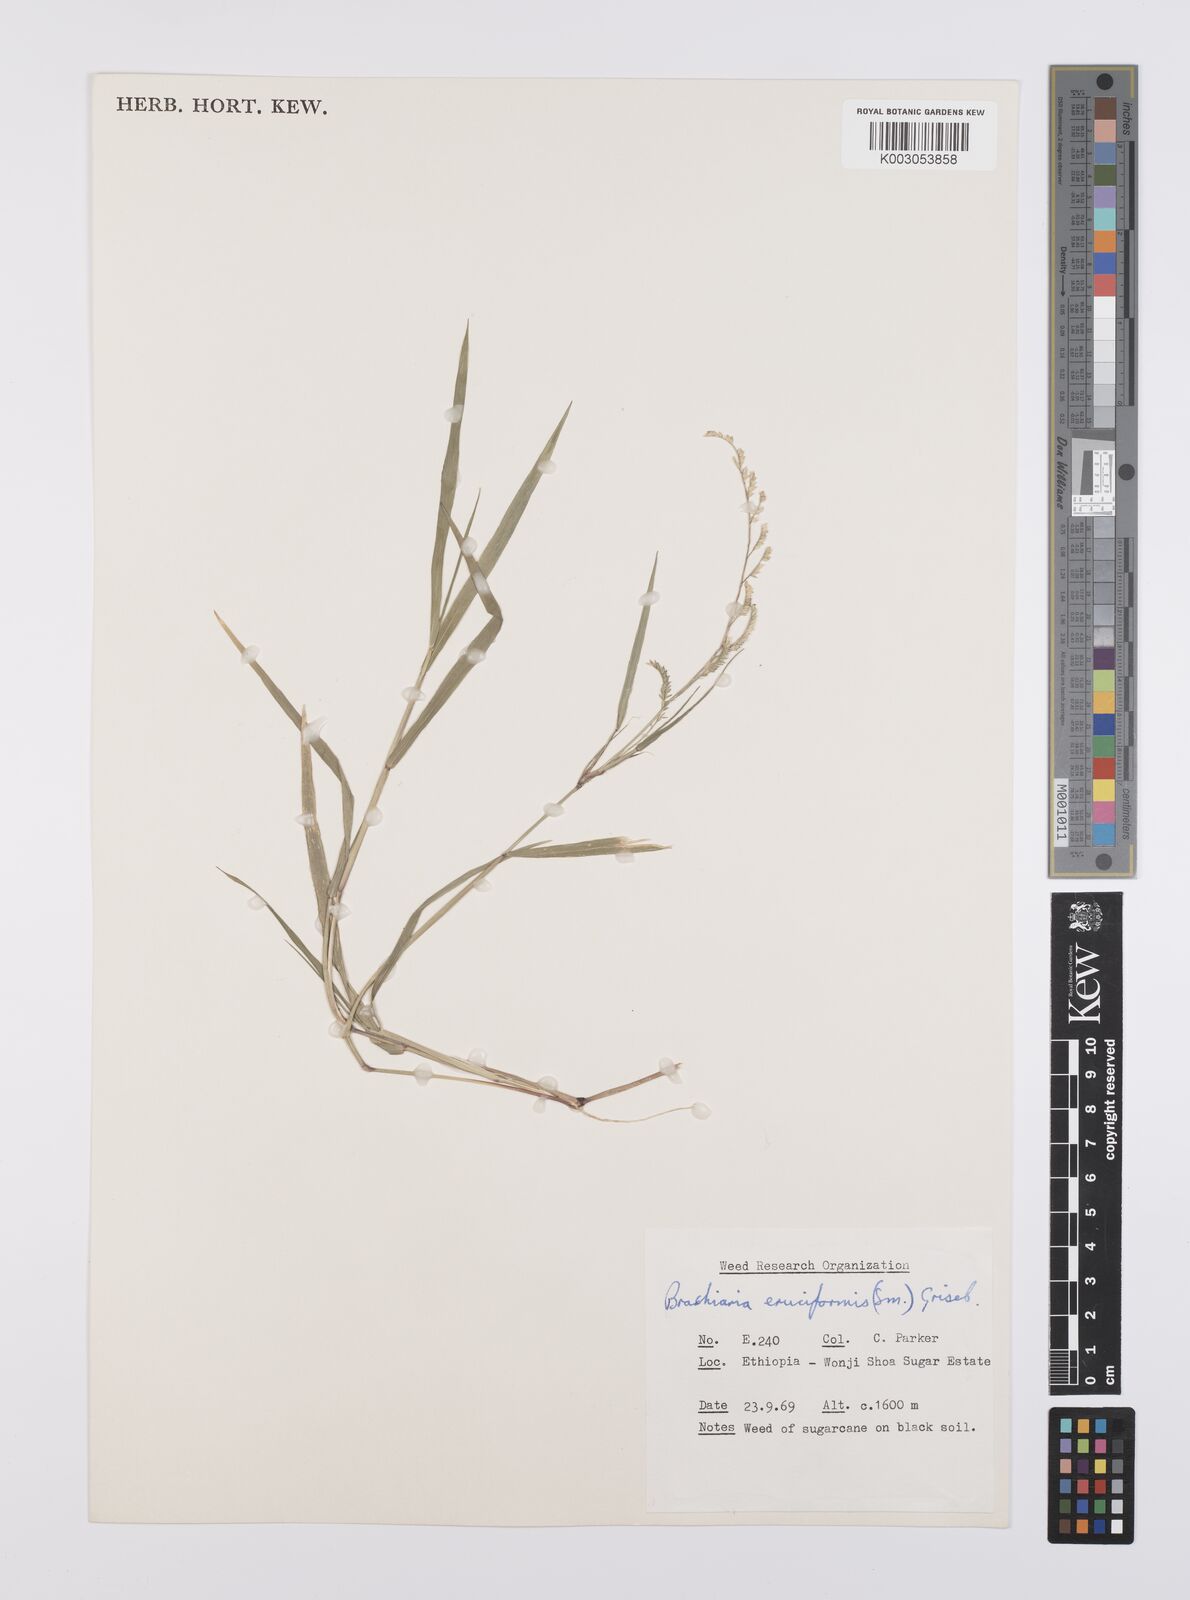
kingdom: Plantae
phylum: Tracheophyta
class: Liliopsida
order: Poales
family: Poaceae
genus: Moorochloa
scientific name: Moorochloa eruciformis
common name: Sweet signalgrass
